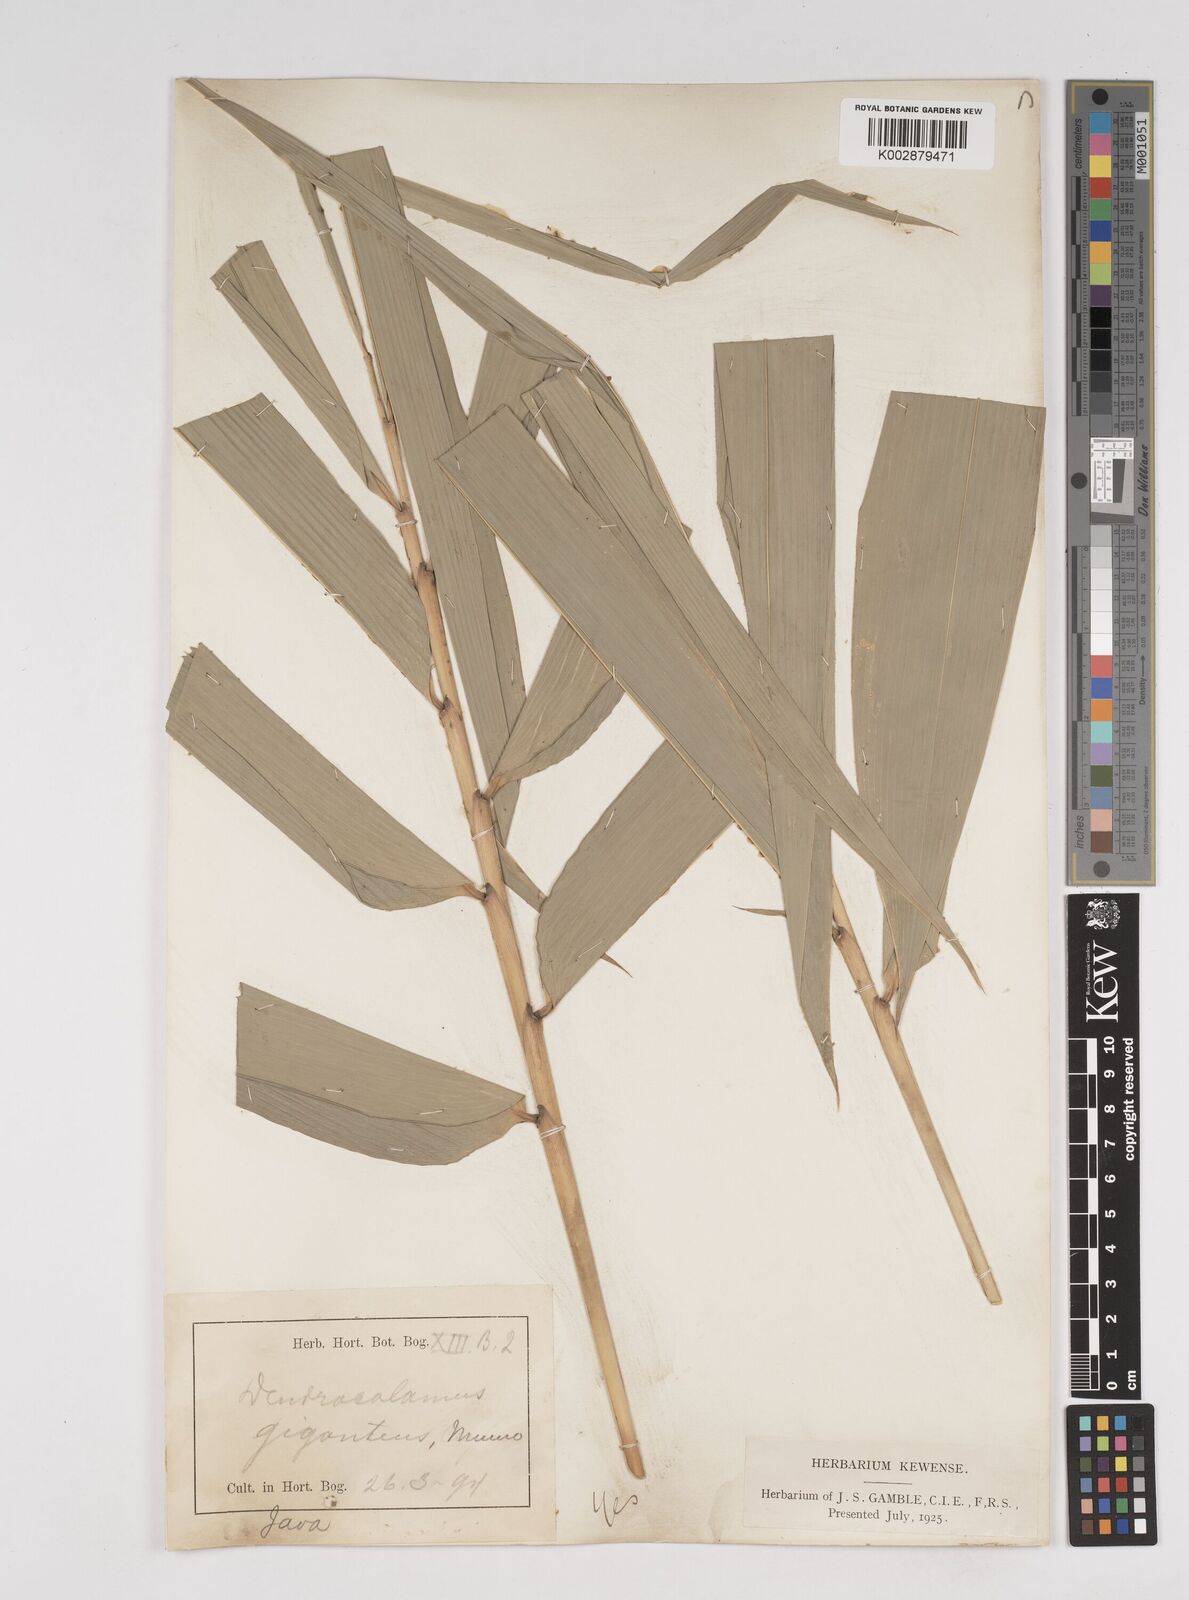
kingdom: Plantae
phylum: Tracheophyta
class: Liliopsida
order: Poales
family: Poaceae
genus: Dendrocalamus
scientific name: Dendrocalamus giganteus
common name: Giant bamboo
